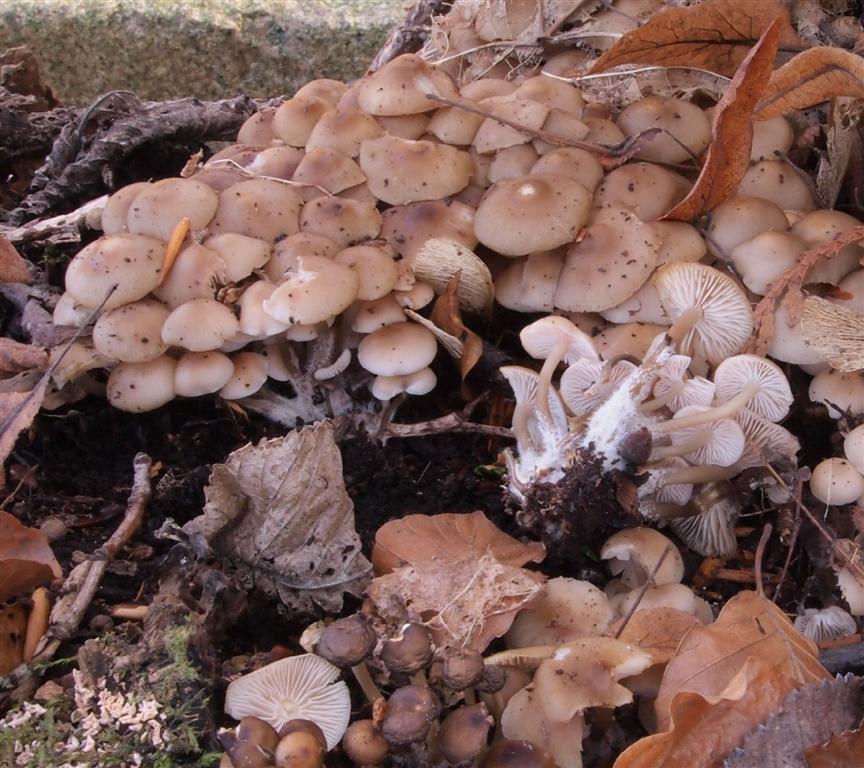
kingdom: Fungi
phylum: Basidiomycota
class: Agaricomycetes
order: Agaricales
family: Mycenaceae
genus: Mycena
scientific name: Mycena tintinnabulum
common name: vinter-huesvamp
